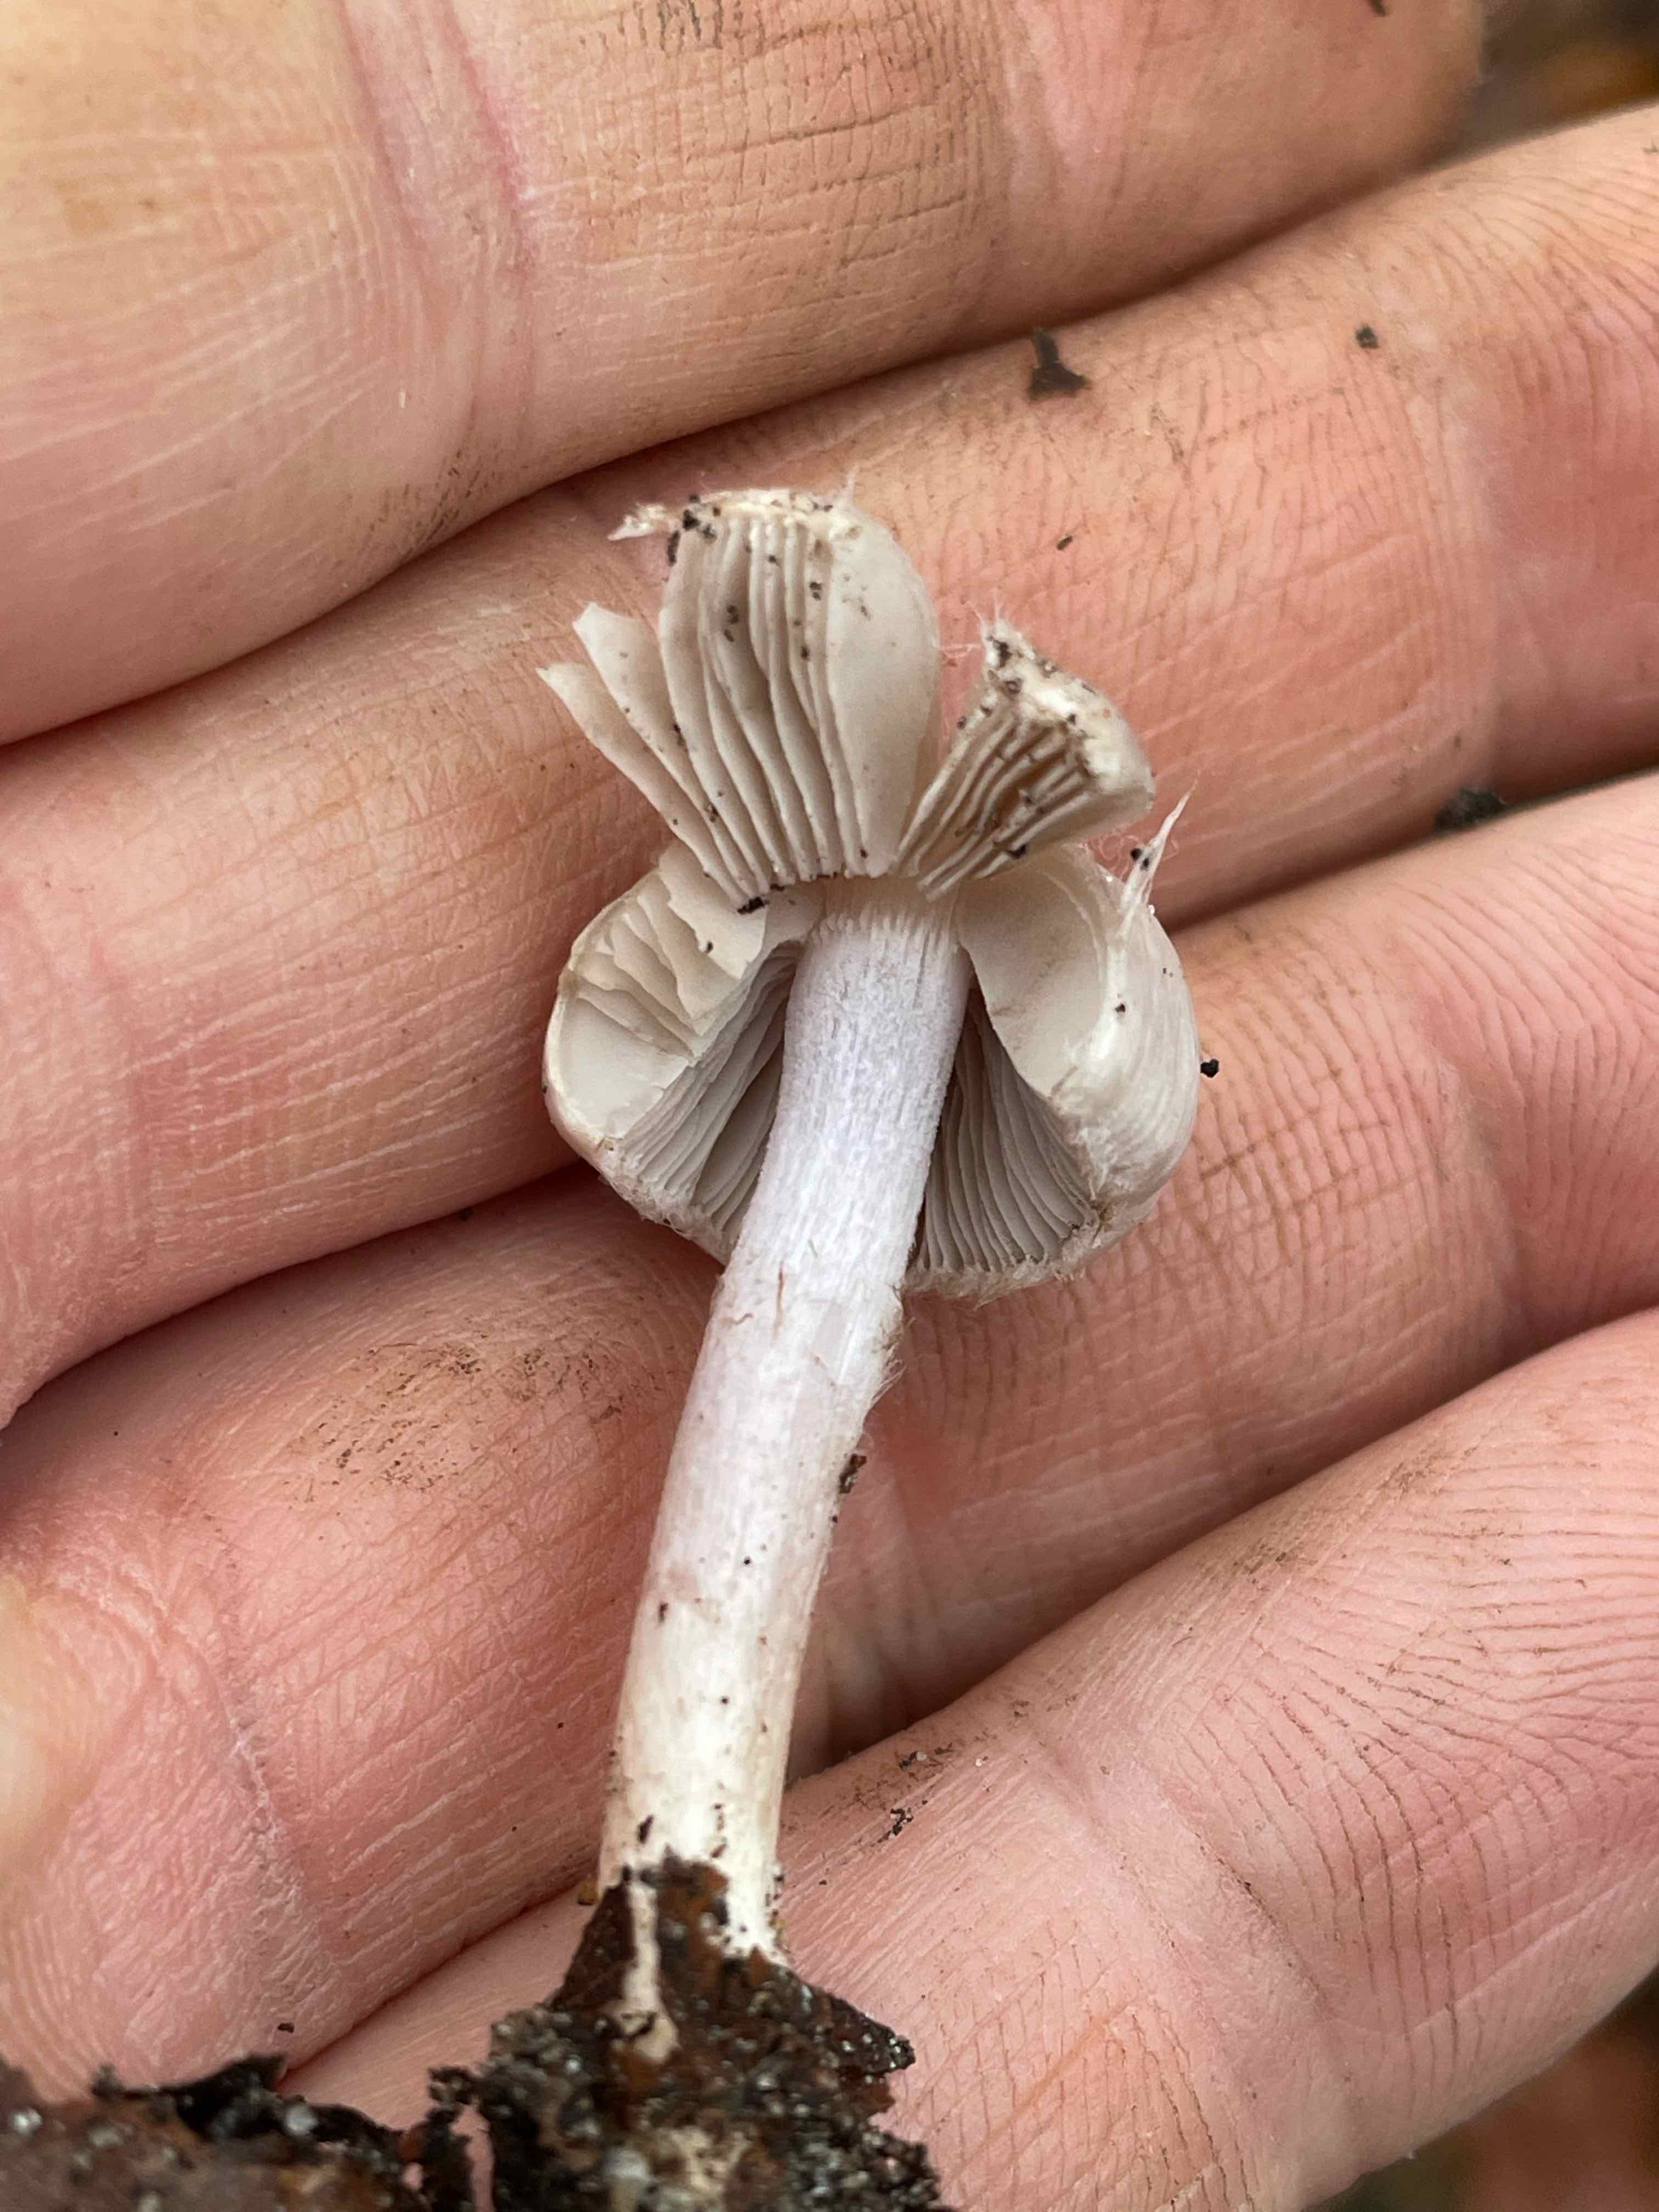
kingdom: Fungi
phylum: Basidiomycota
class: Agaricomycetes
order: Agaricales
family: Inocybaceae
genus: Inocybe
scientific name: Inocybe geophylla
